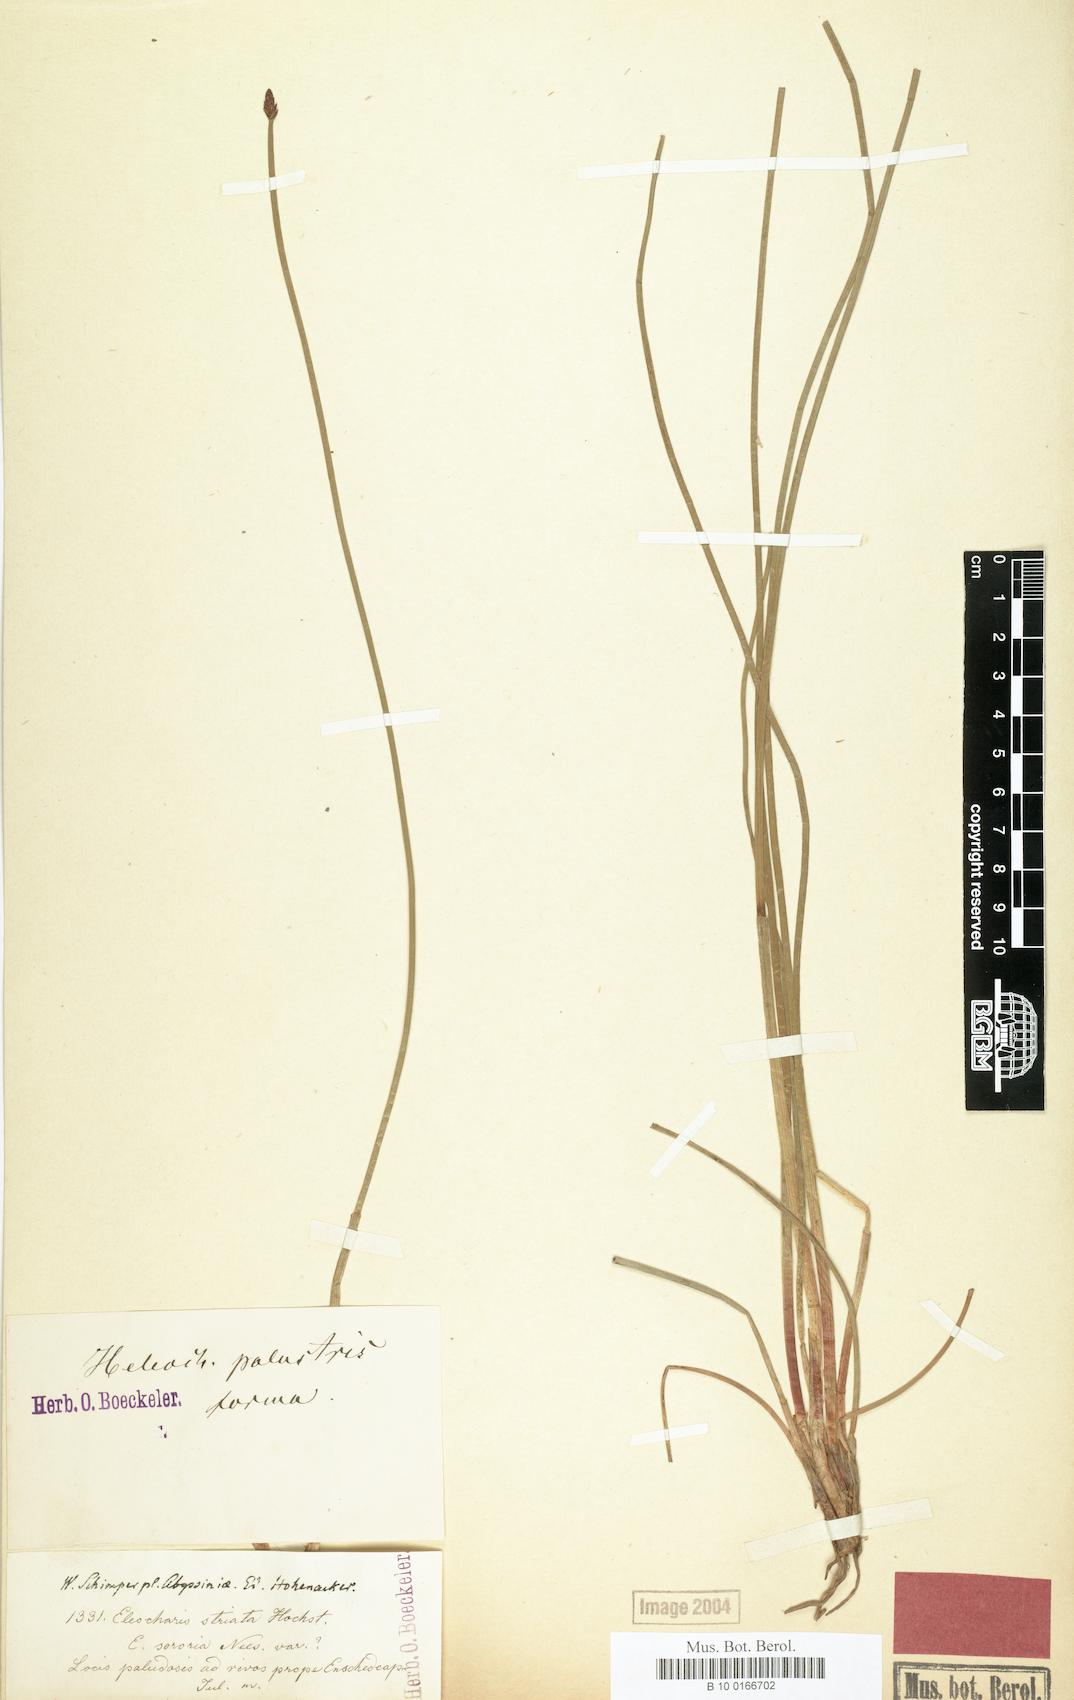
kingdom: Plantae
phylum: Tracheophyta
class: Liliopsida
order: Poales
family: Cyperaceae
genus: Eleocharis
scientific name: Eleocharis marginulata
